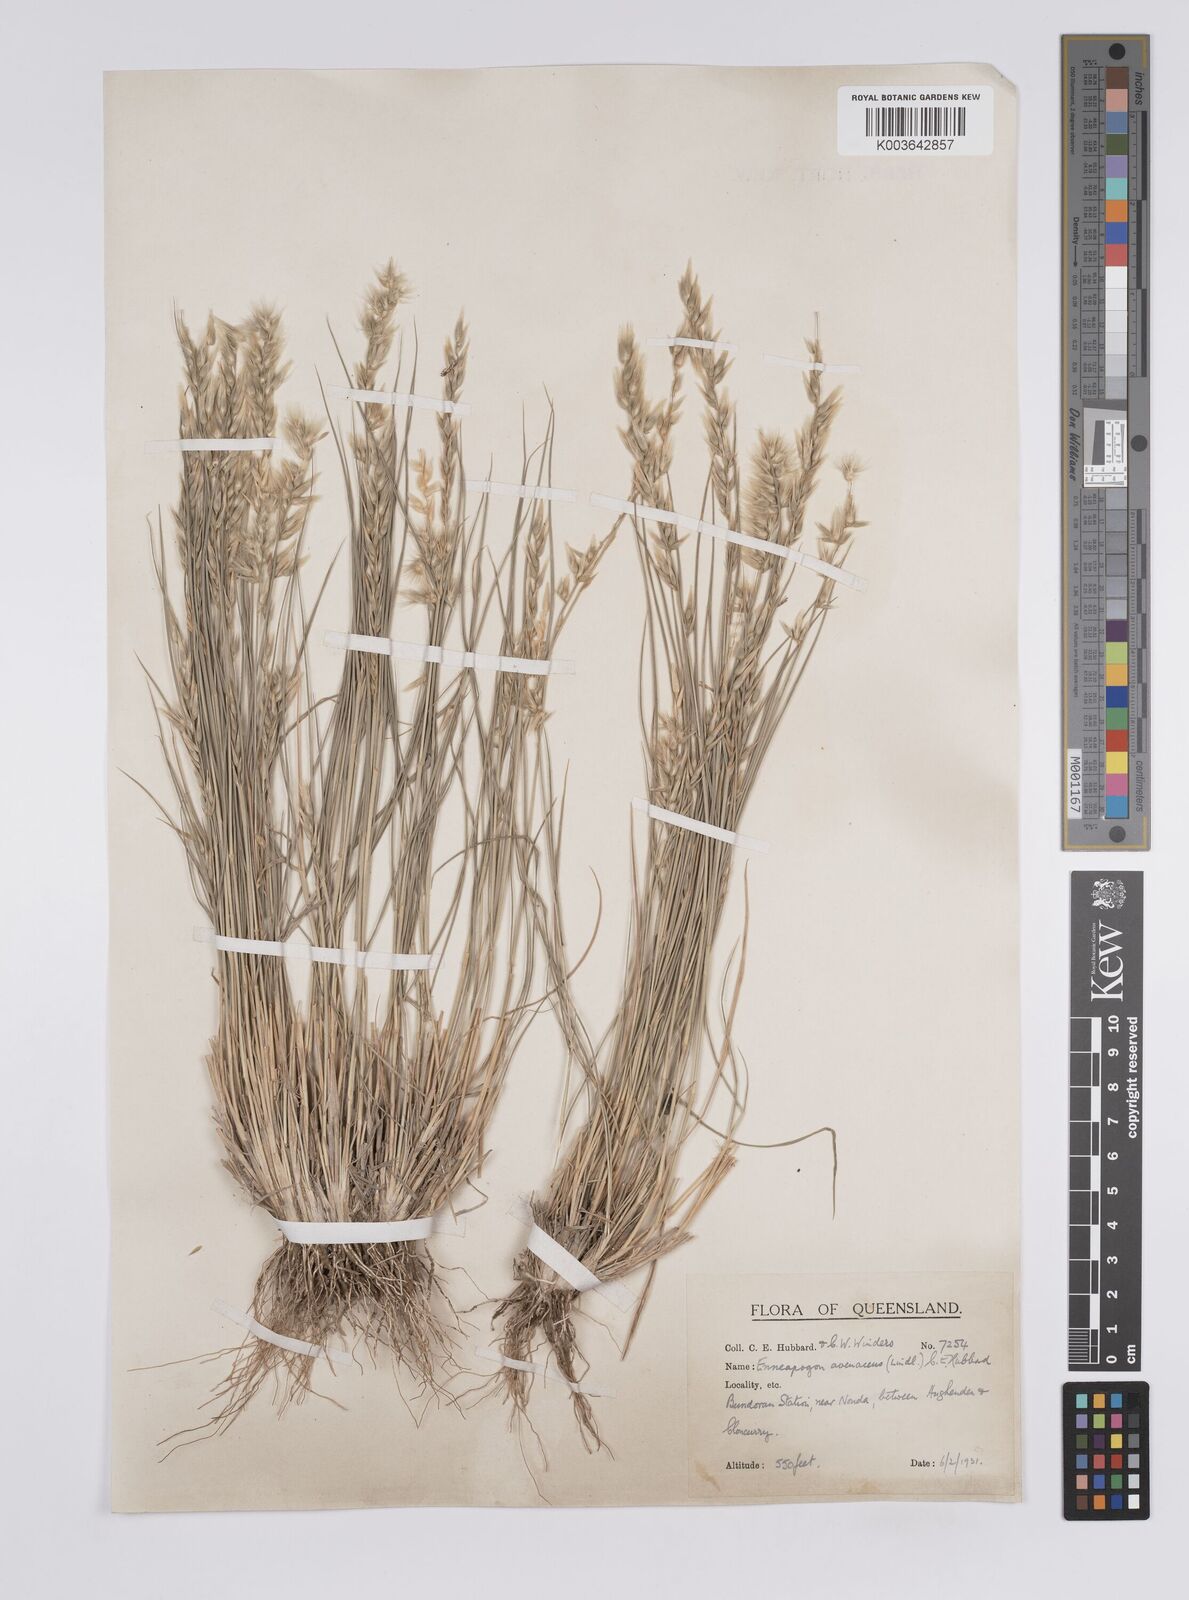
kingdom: Plantae
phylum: Tracheophyta
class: Liliopsida
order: Poales
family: Poaceae
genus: Enneapogon
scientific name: Enneapogon avenaceus
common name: Hairy oat grass
